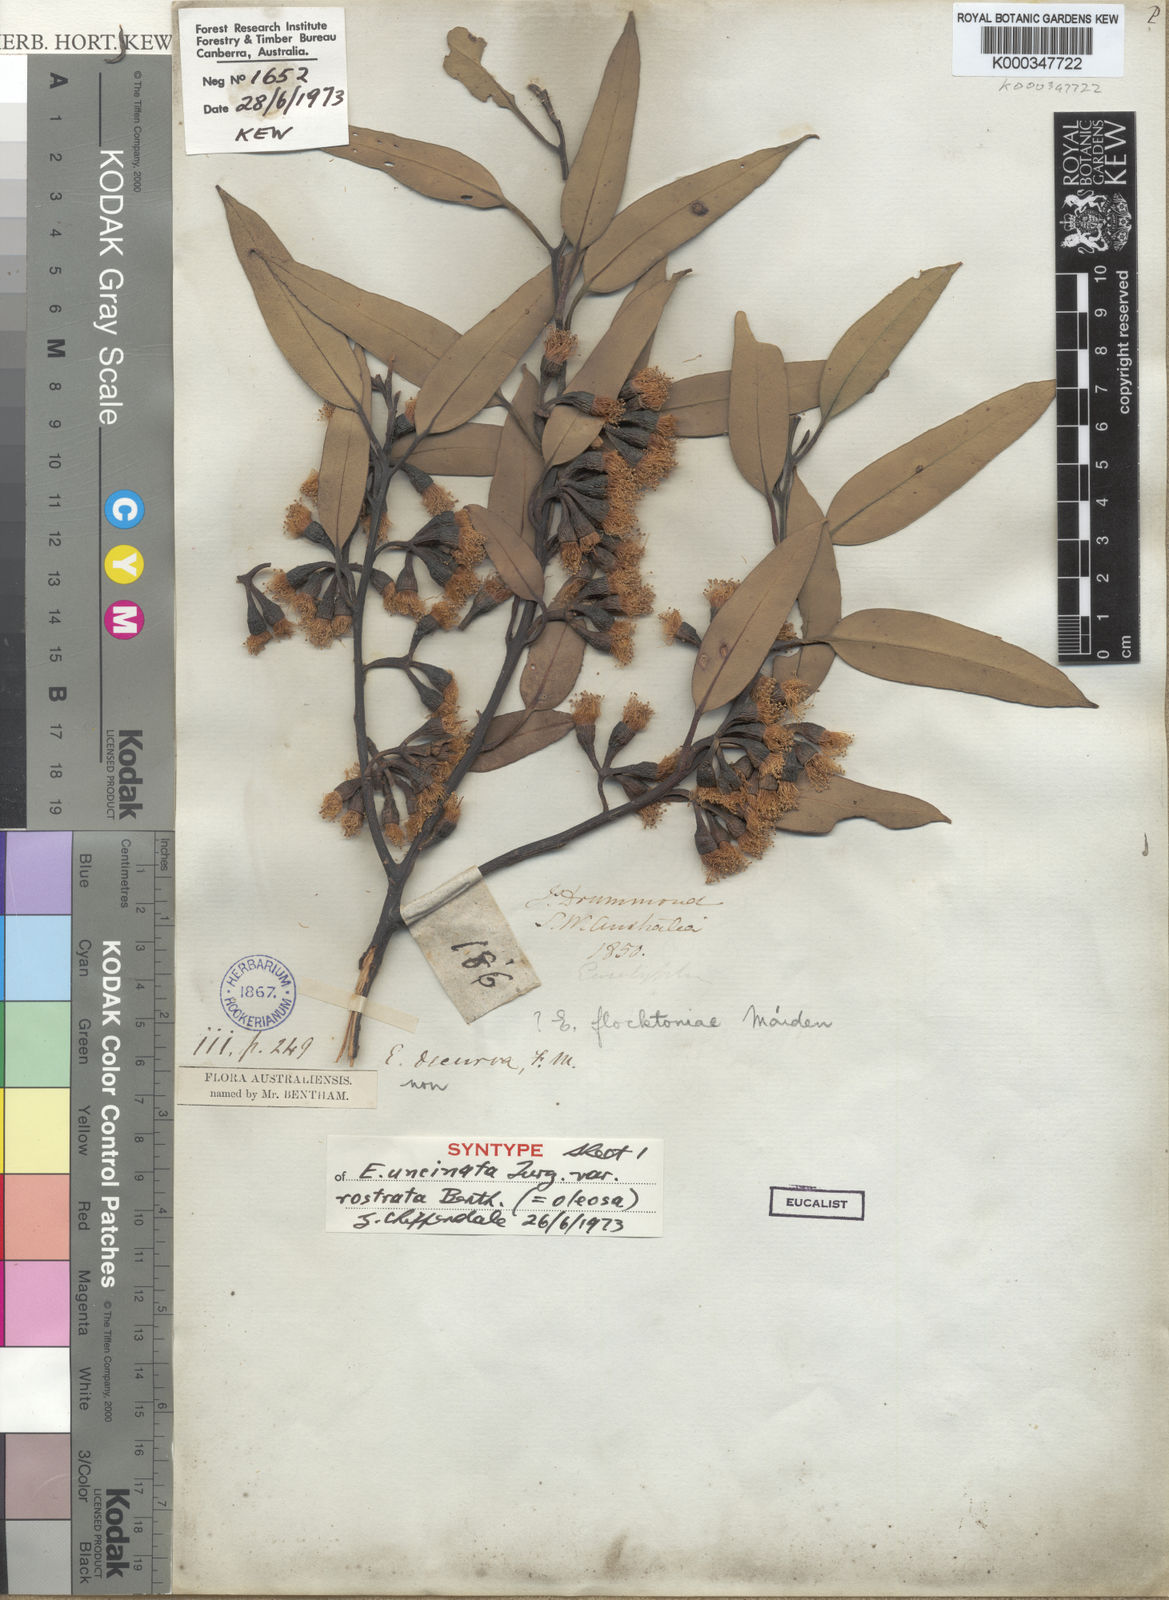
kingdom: Plantae
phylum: Tracheophyta
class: Magnoliopsida
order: Myrtales
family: Myrtaceae
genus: Eucalyptus
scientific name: Eucalyptus oleosa
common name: Oil mallee
